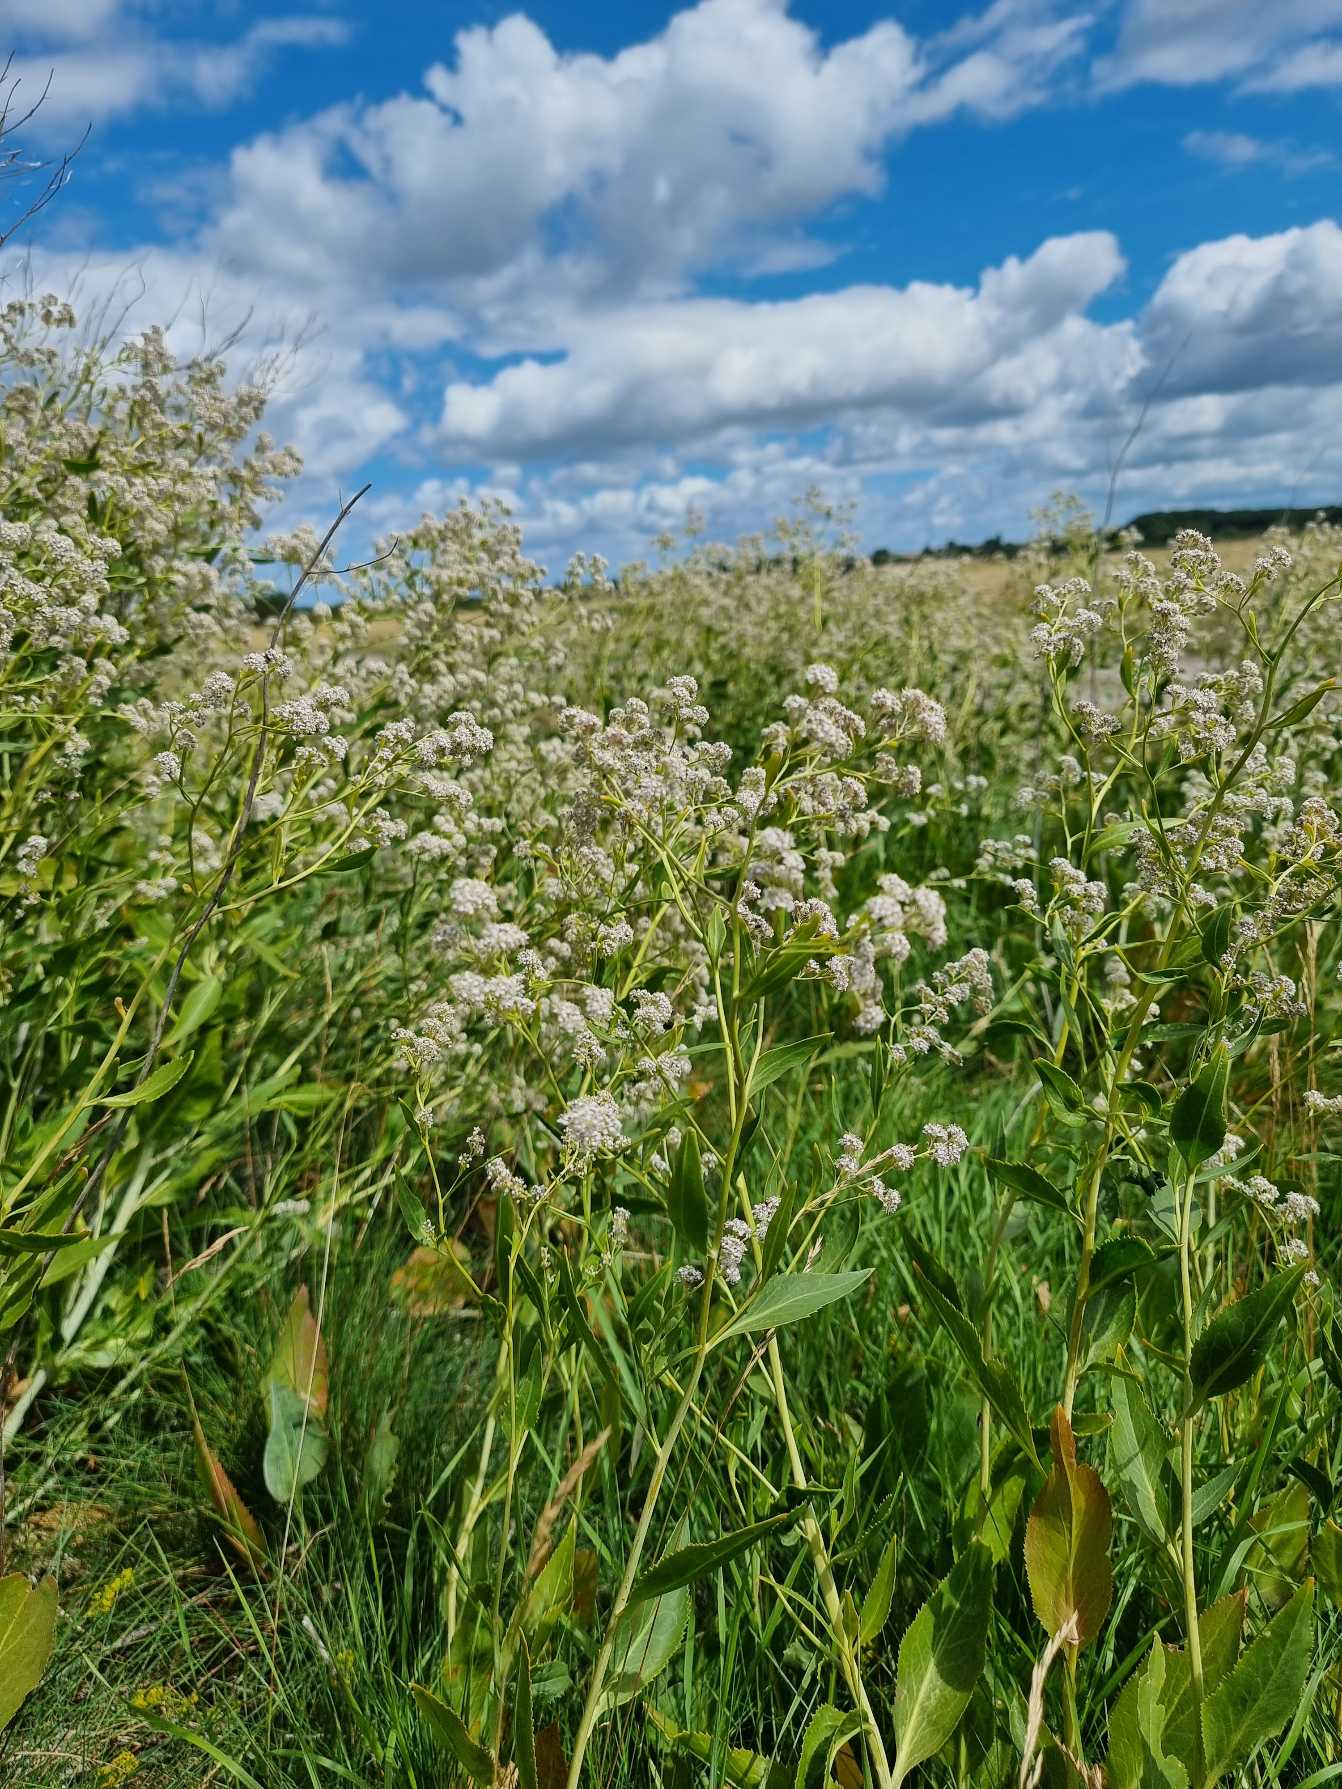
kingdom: Plantae
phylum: Tracheophyta
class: Magnoliopsida
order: Brassicales
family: Brassicaceae
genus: Lepidium
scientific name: Lepidium latifolium
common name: Strand-karse
